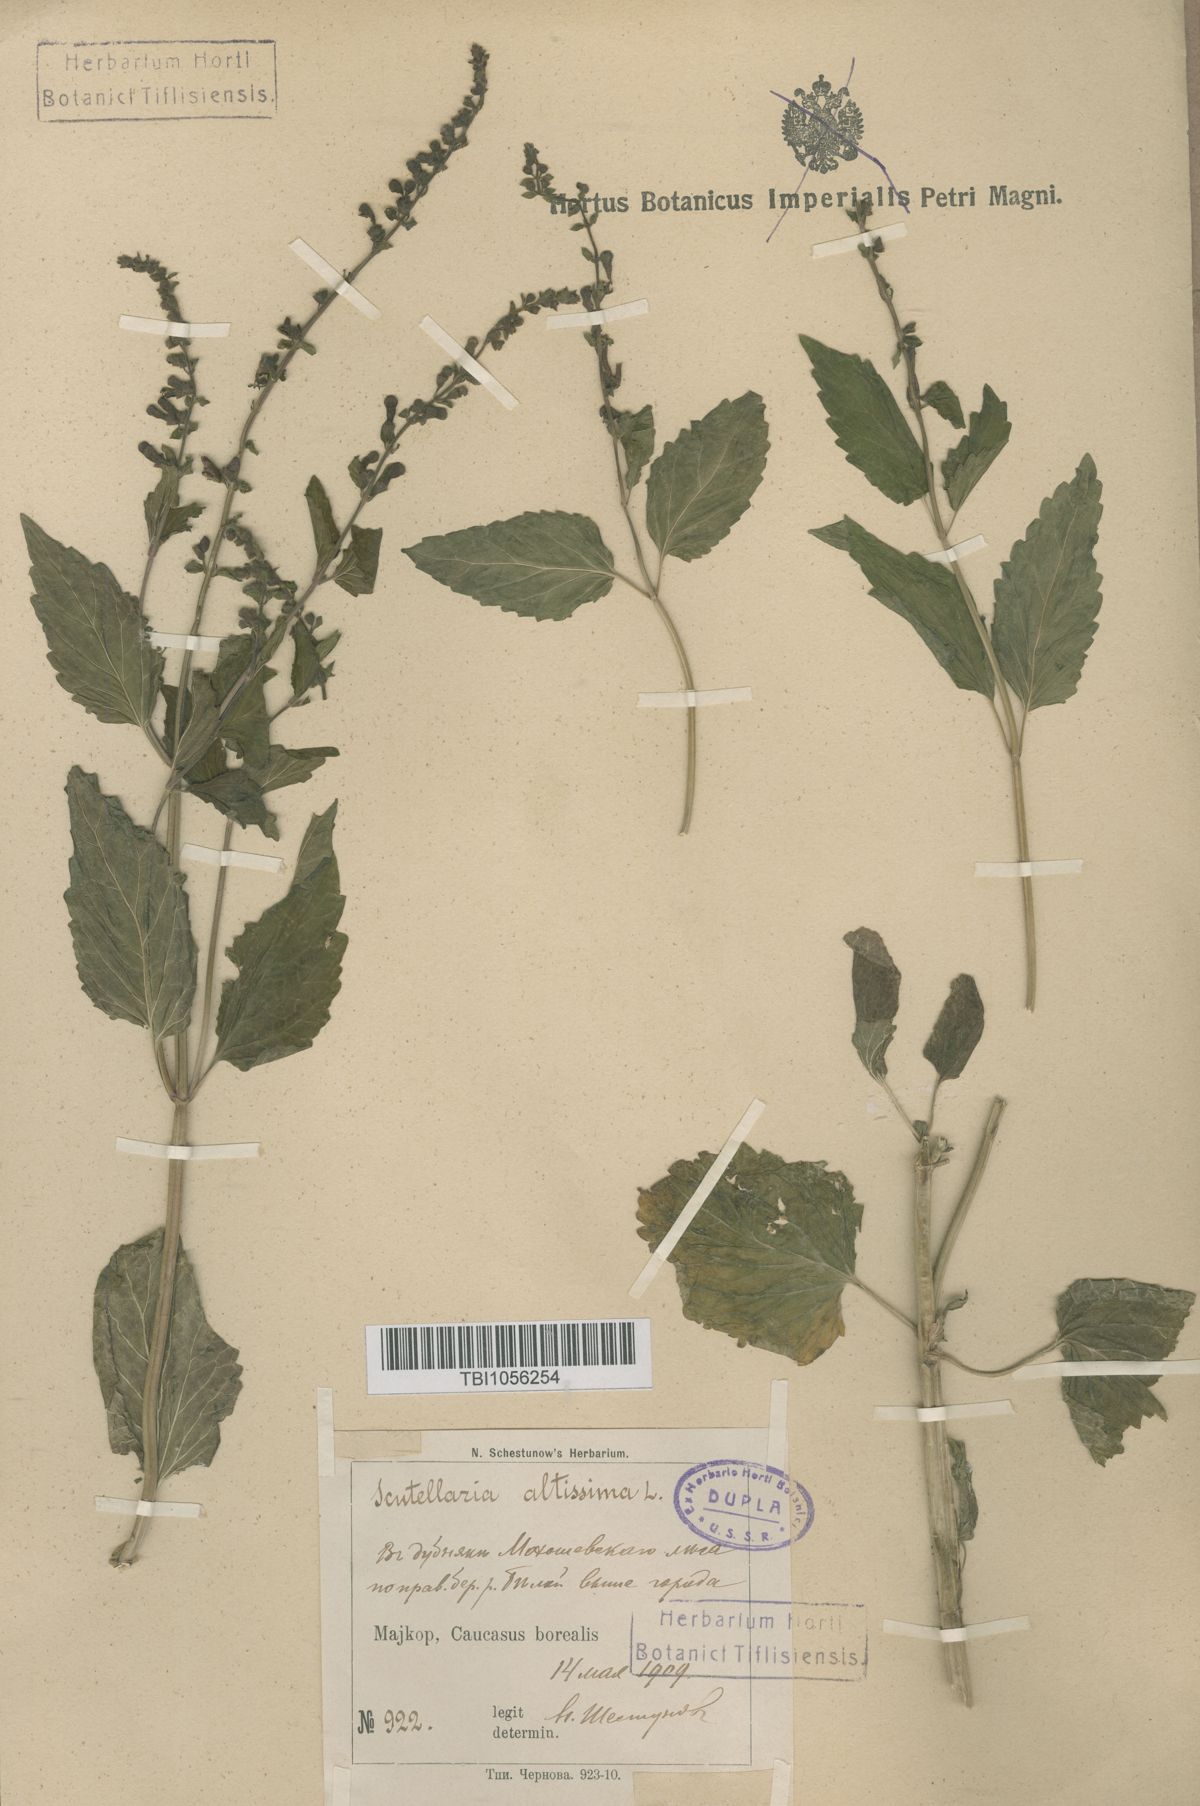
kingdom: Plantae
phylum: Tracheophyta
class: Magnoliopsida
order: Lamiales
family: Lamiaceae
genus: Scutellaria
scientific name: Scutellaria altissima
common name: Somerset skullcap
